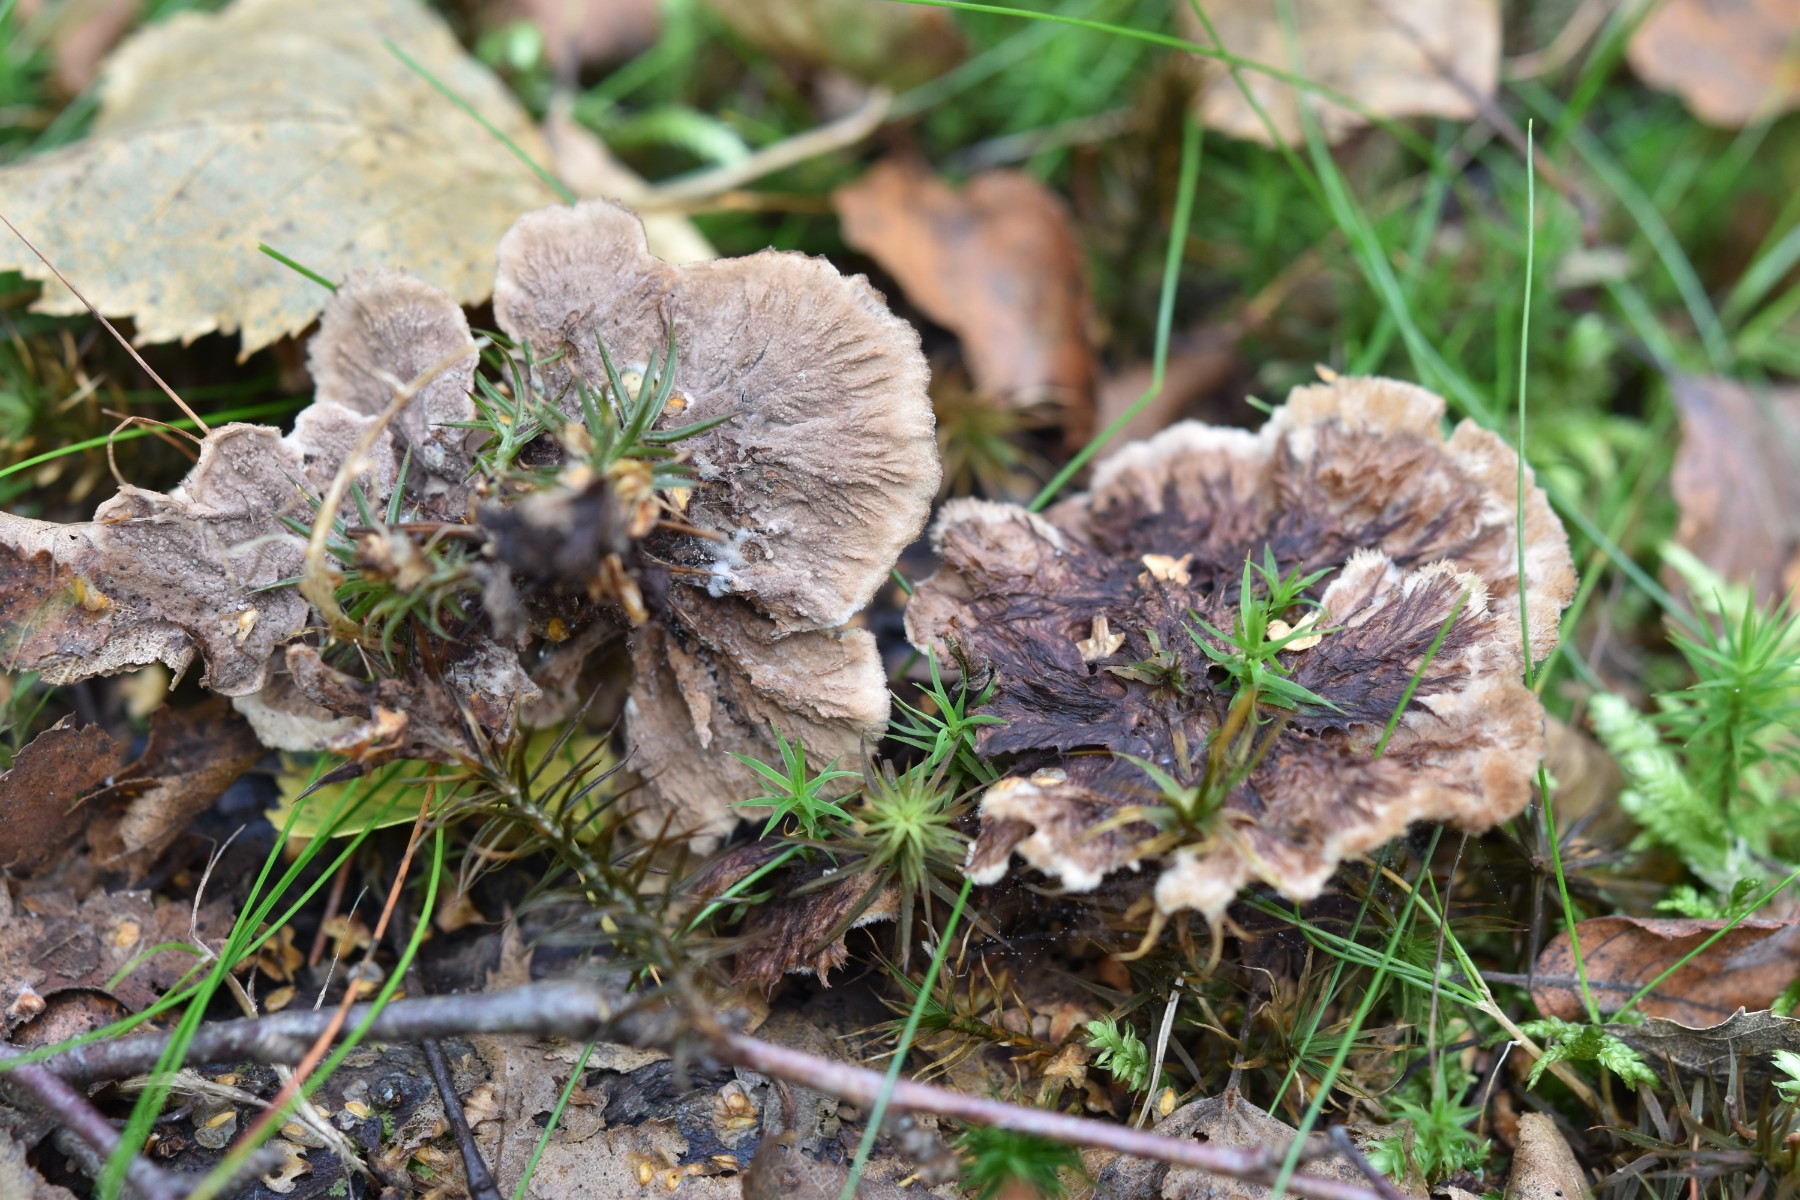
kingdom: Fungi
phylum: Basidiomycota
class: Agaricomycetes
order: Thelephorales
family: Thelephoraceae
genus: Thelephora
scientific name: Thelephora terrestris
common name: fliget frynsesvamp
